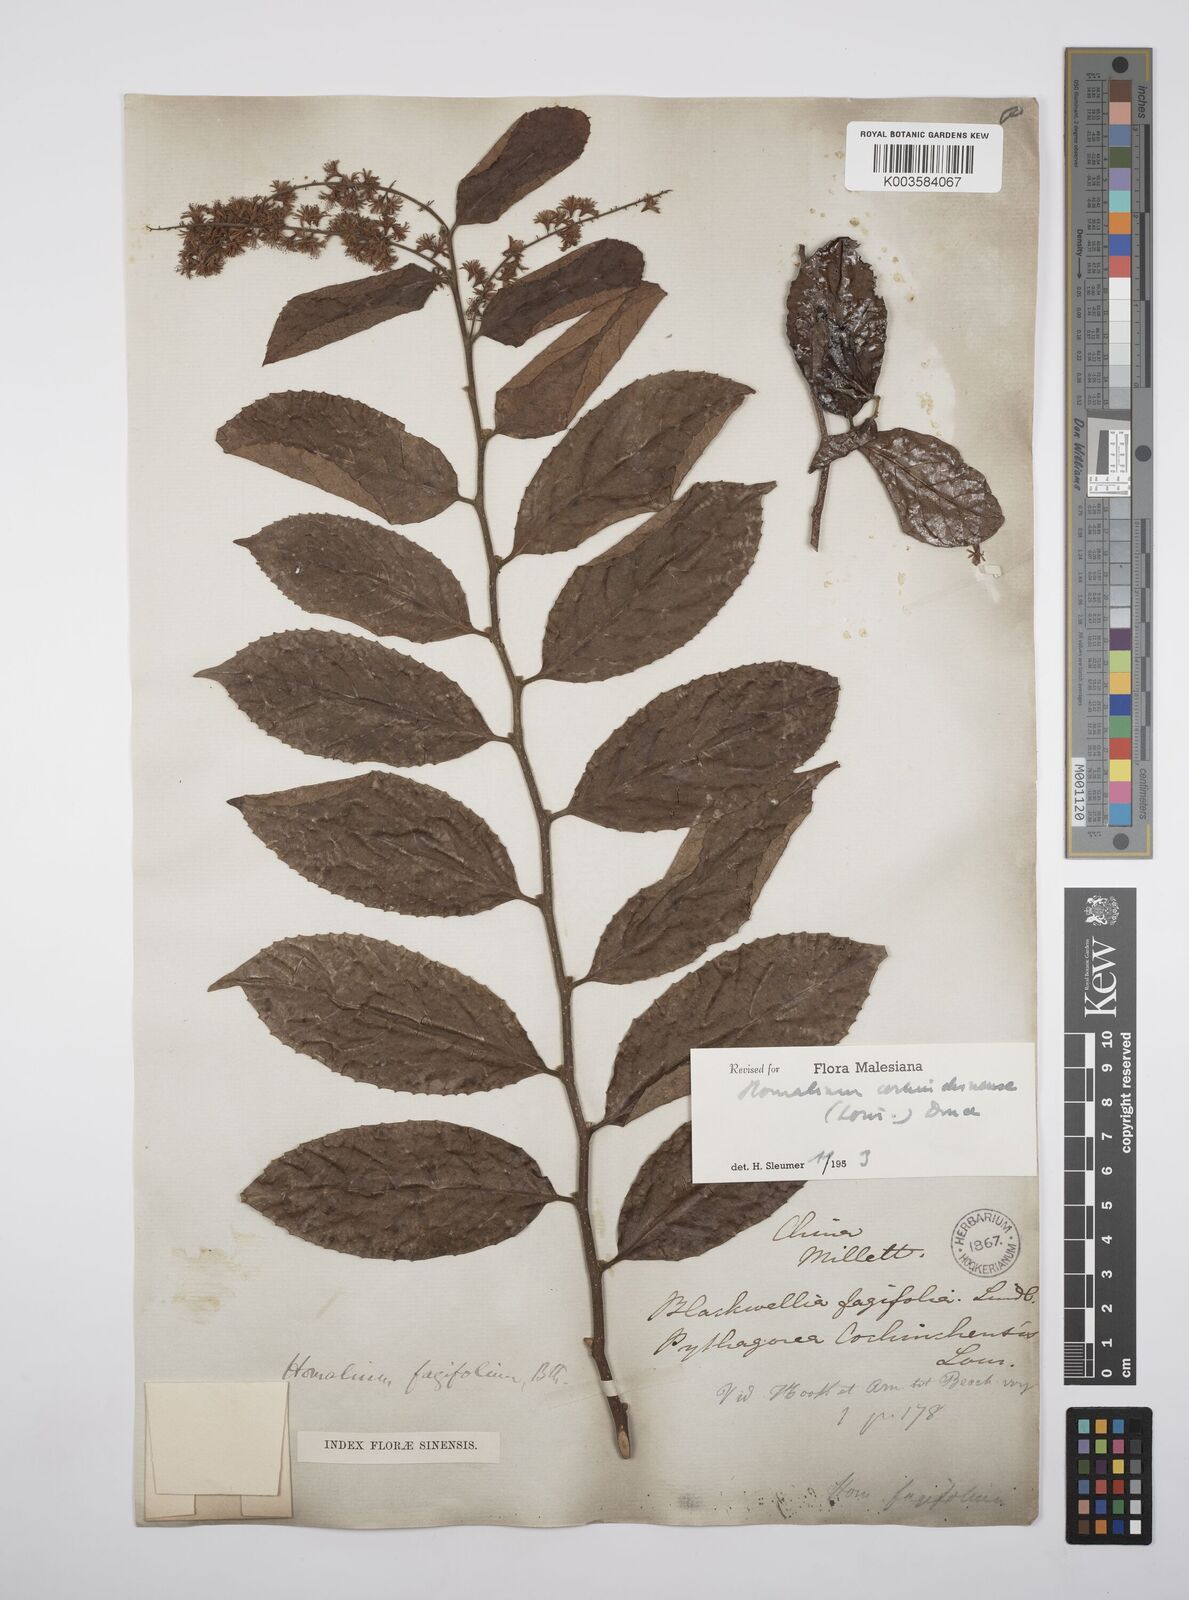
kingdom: Plantae
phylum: Tracheophyta
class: Magnoliopsida
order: Malpighiales
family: Salicaceae
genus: Homalium
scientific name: Homalium cochinchinensis
